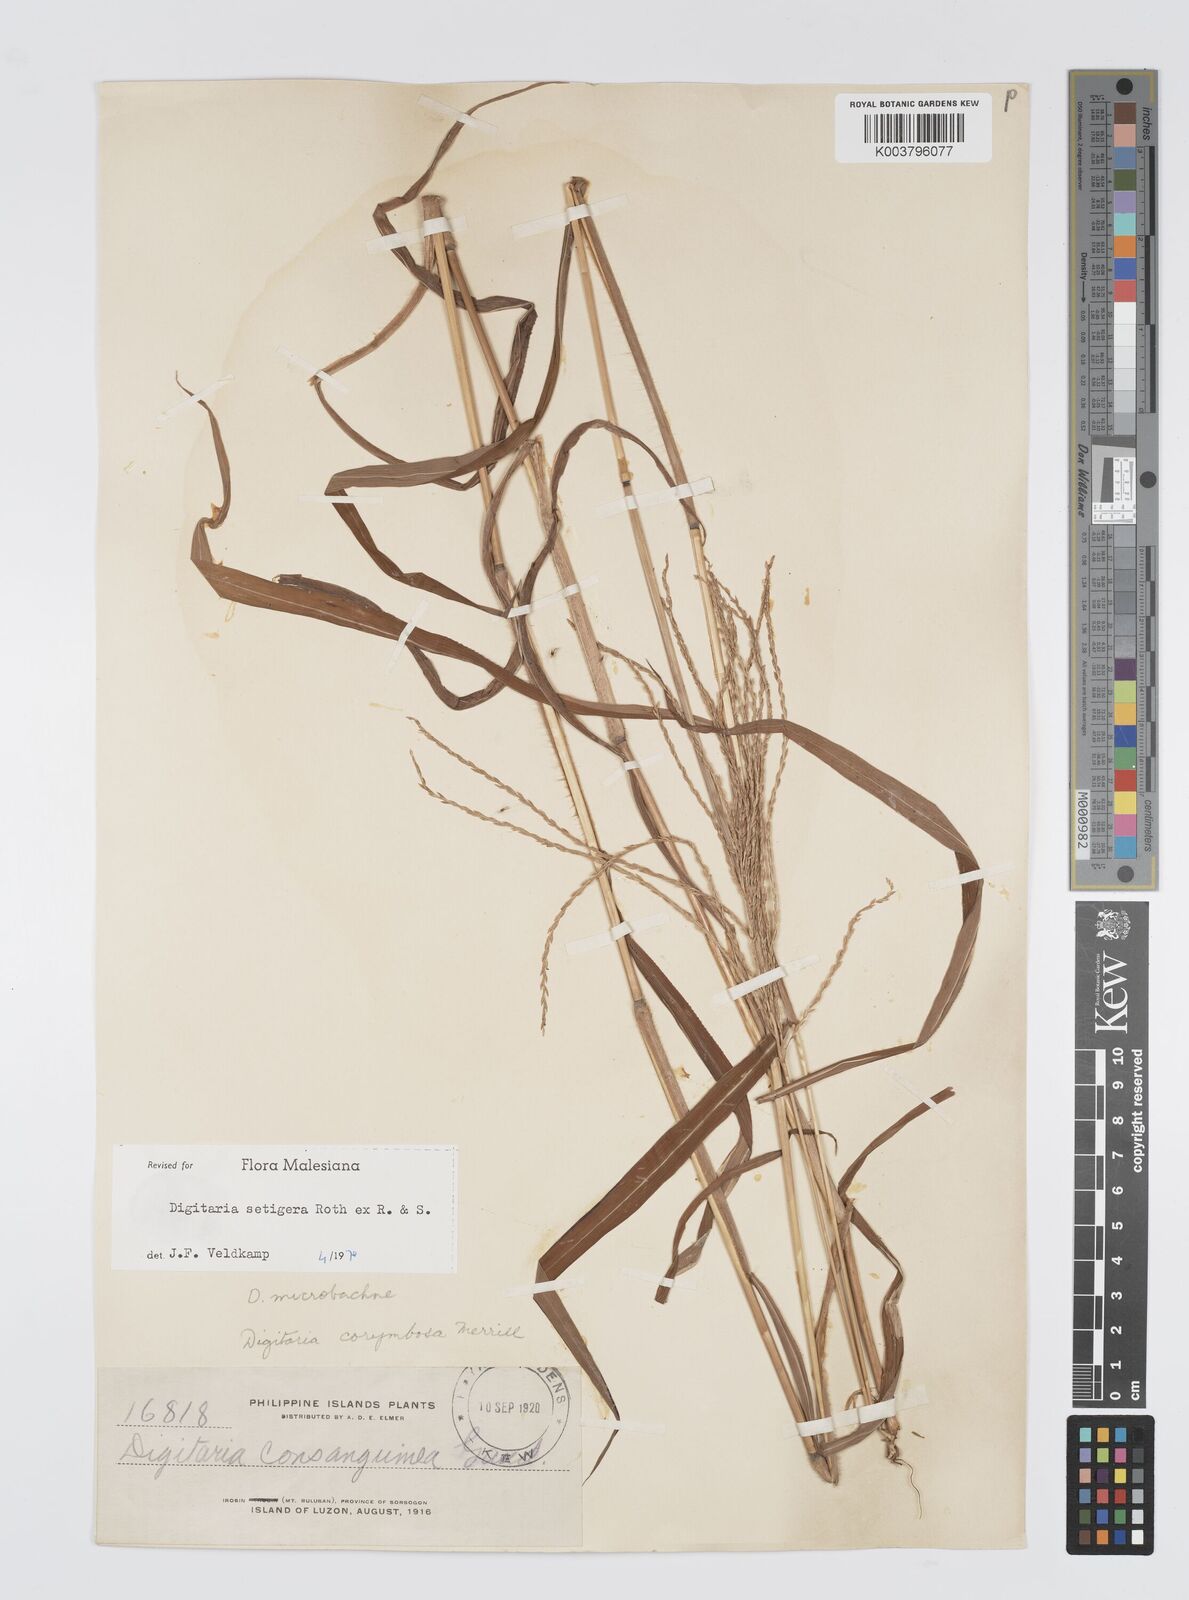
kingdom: Plantae
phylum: Tracheophyta
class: Liliopsida
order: Poales
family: Poaceae
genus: Digitaria
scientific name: Digitaria setigera
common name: East indian crabgrass
